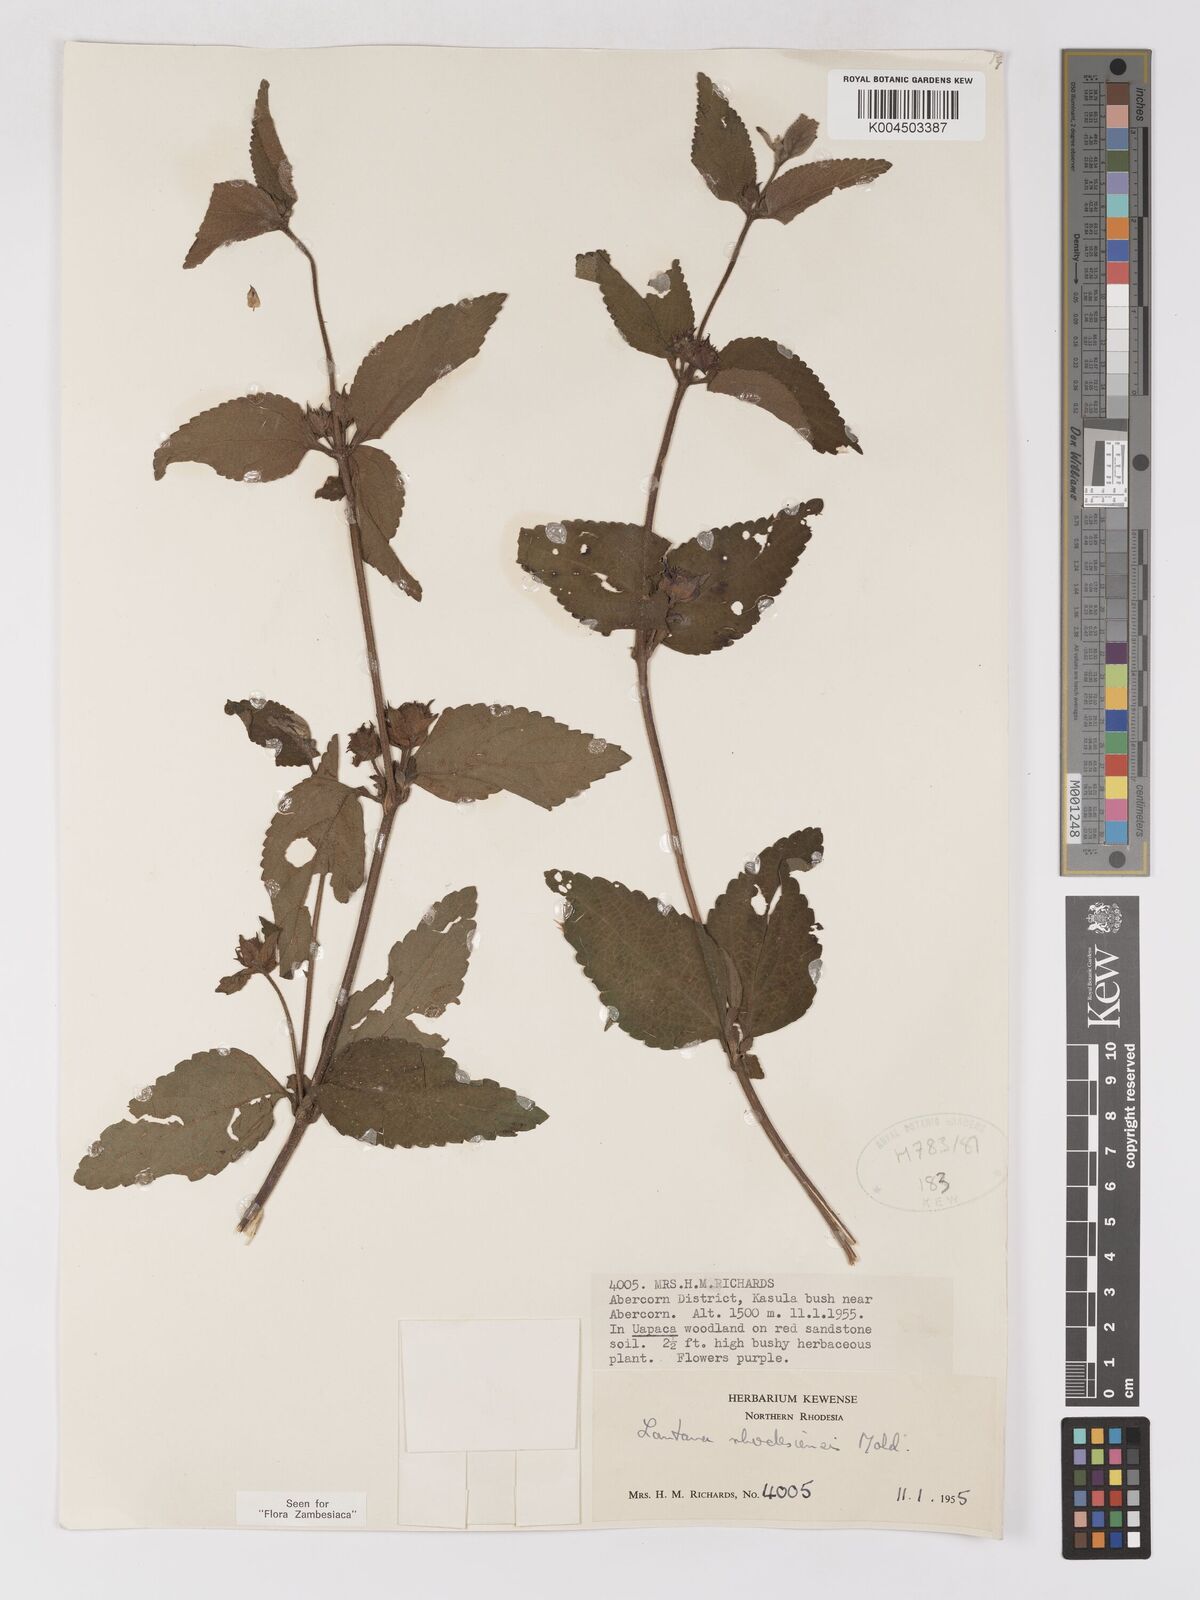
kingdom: Plantae
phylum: Tracheophyta
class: Magnoliopsida
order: Lamiales
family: Verbenaceae
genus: Lantana
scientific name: Lantana ukambensis
